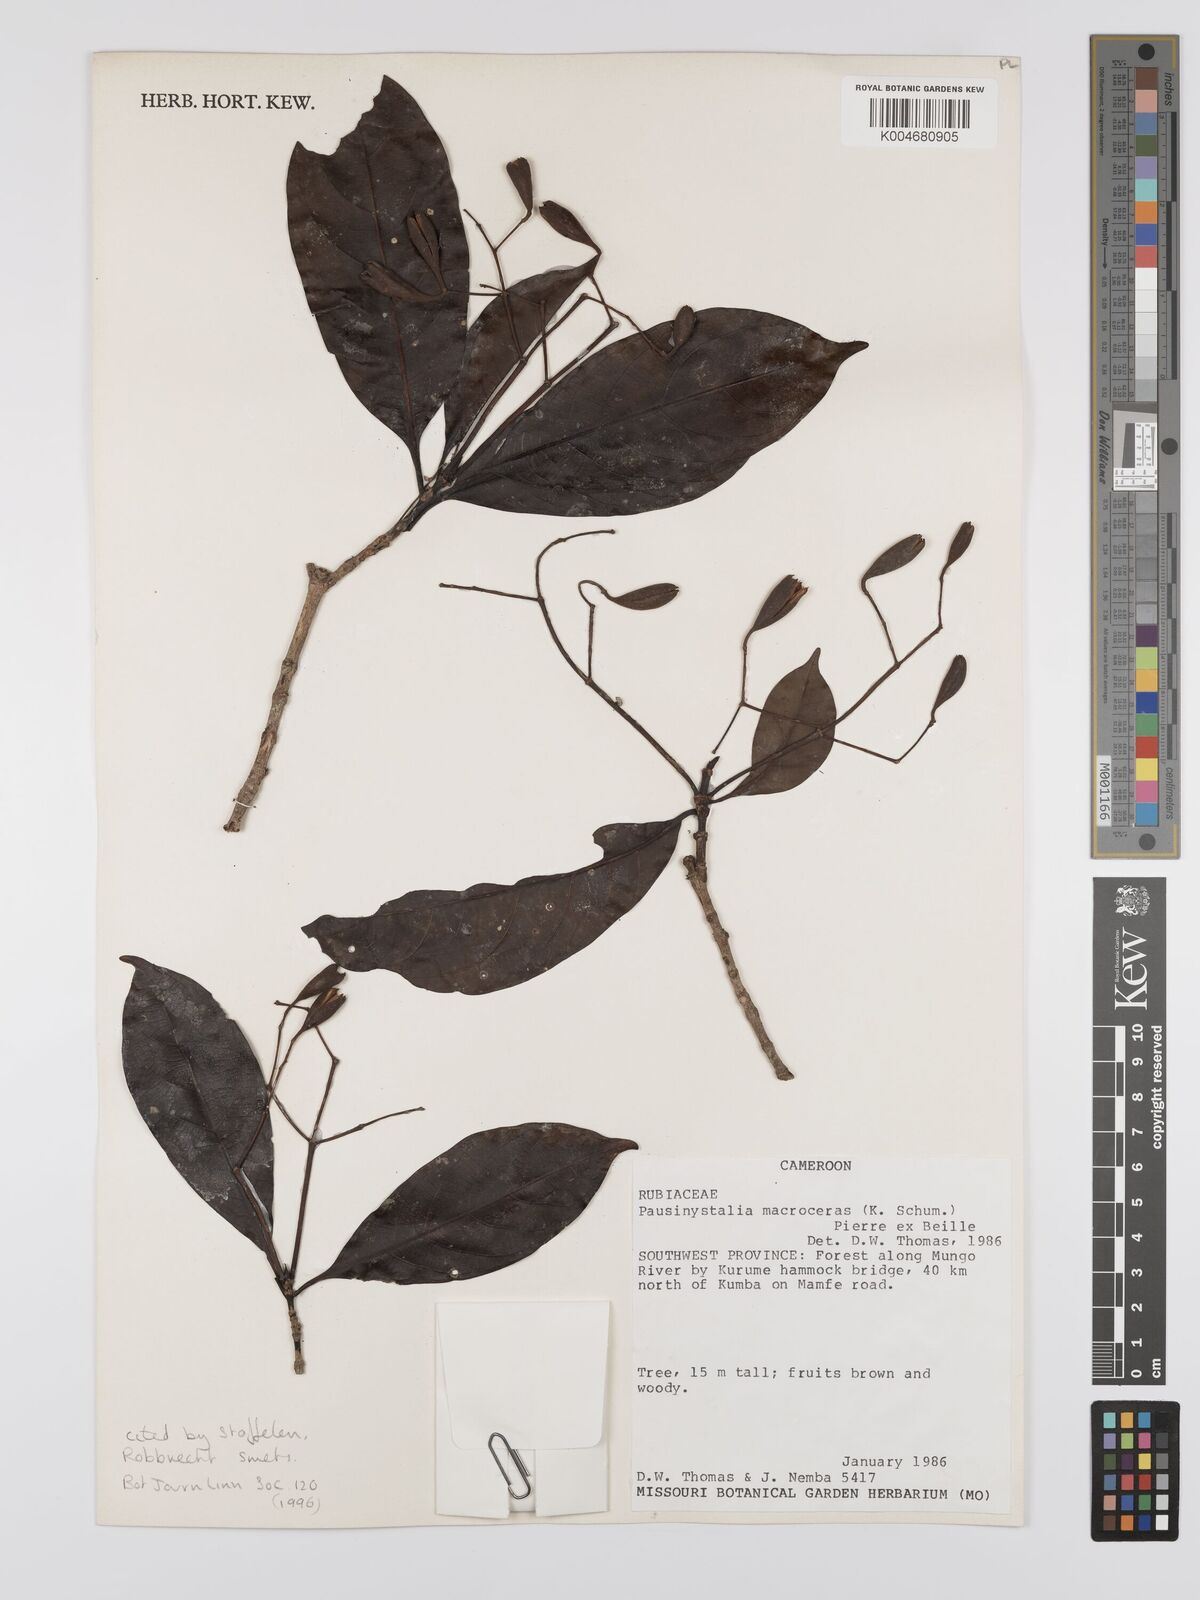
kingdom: Plantae
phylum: Tracheophyta
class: Magnoliopsida
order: Gentianales
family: Rubiaceae
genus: Corynanthe
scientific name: Corynanthe macroceras
